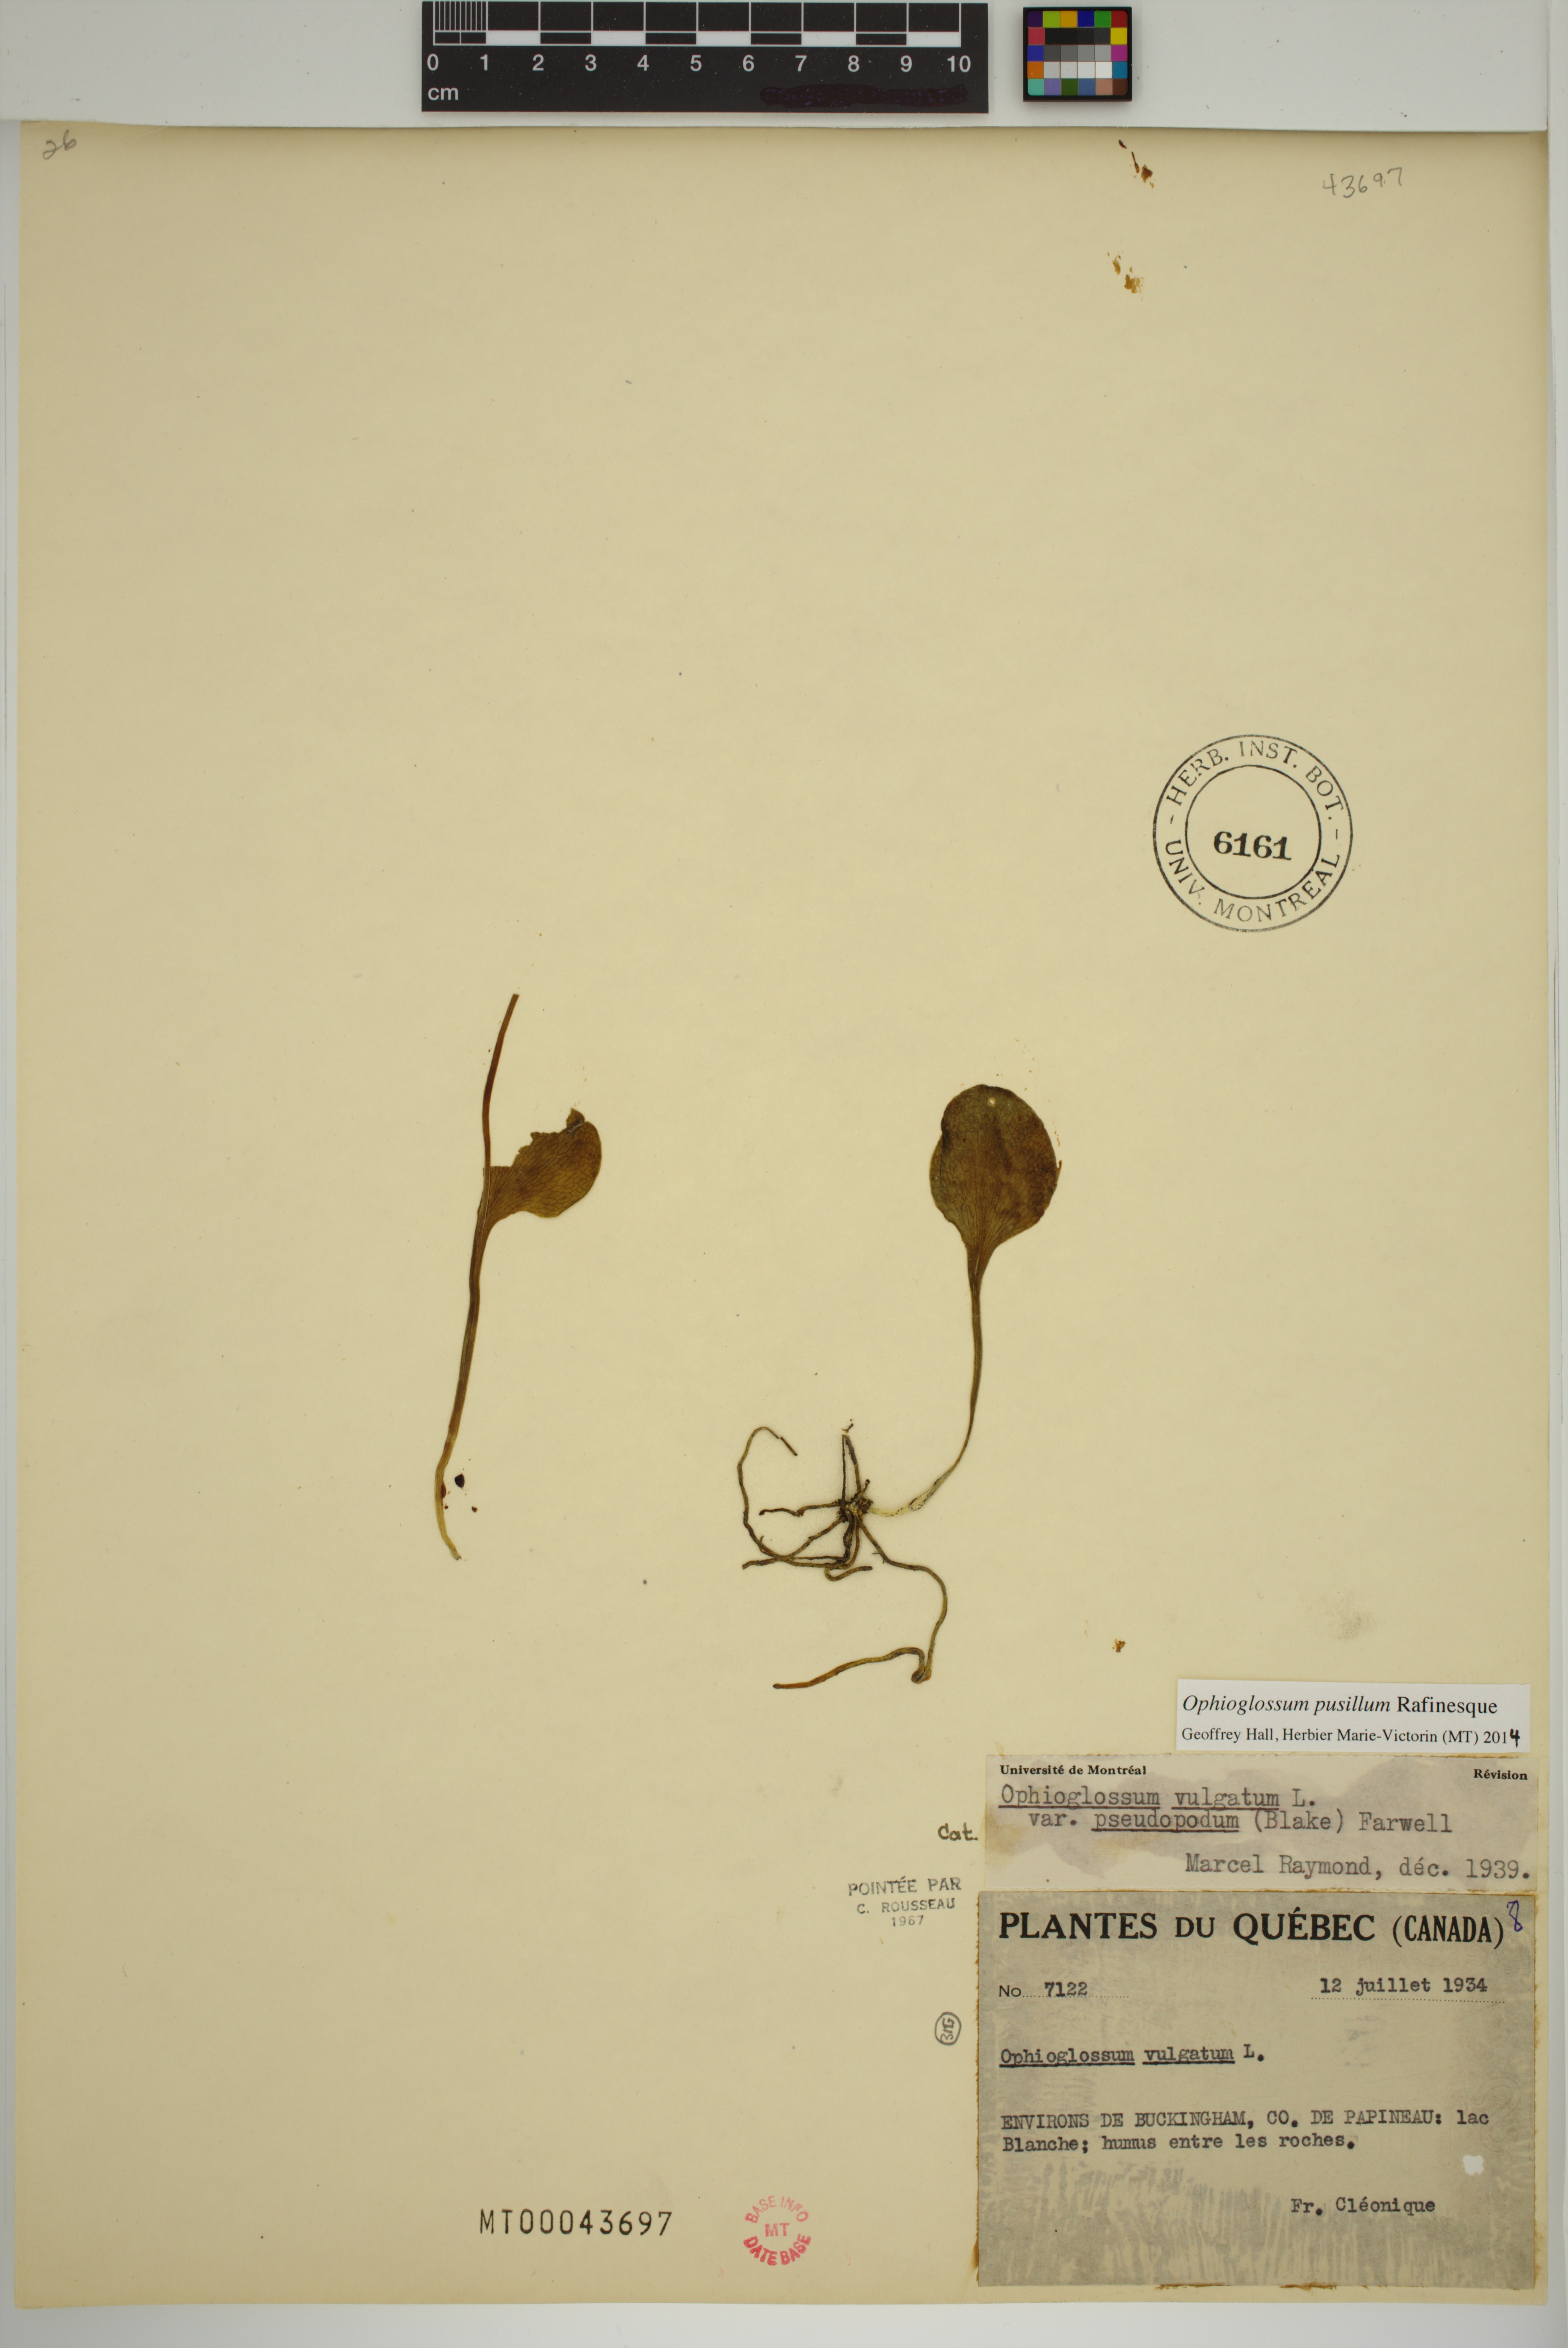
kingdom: Plantae
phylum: Tracheophyta
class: Polypodiopsida
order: Ophioglossales
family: Ophioglossaceae
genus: Ophioglossum
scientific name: Ophioglossum pusillum
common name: Northern adder's-tongue
